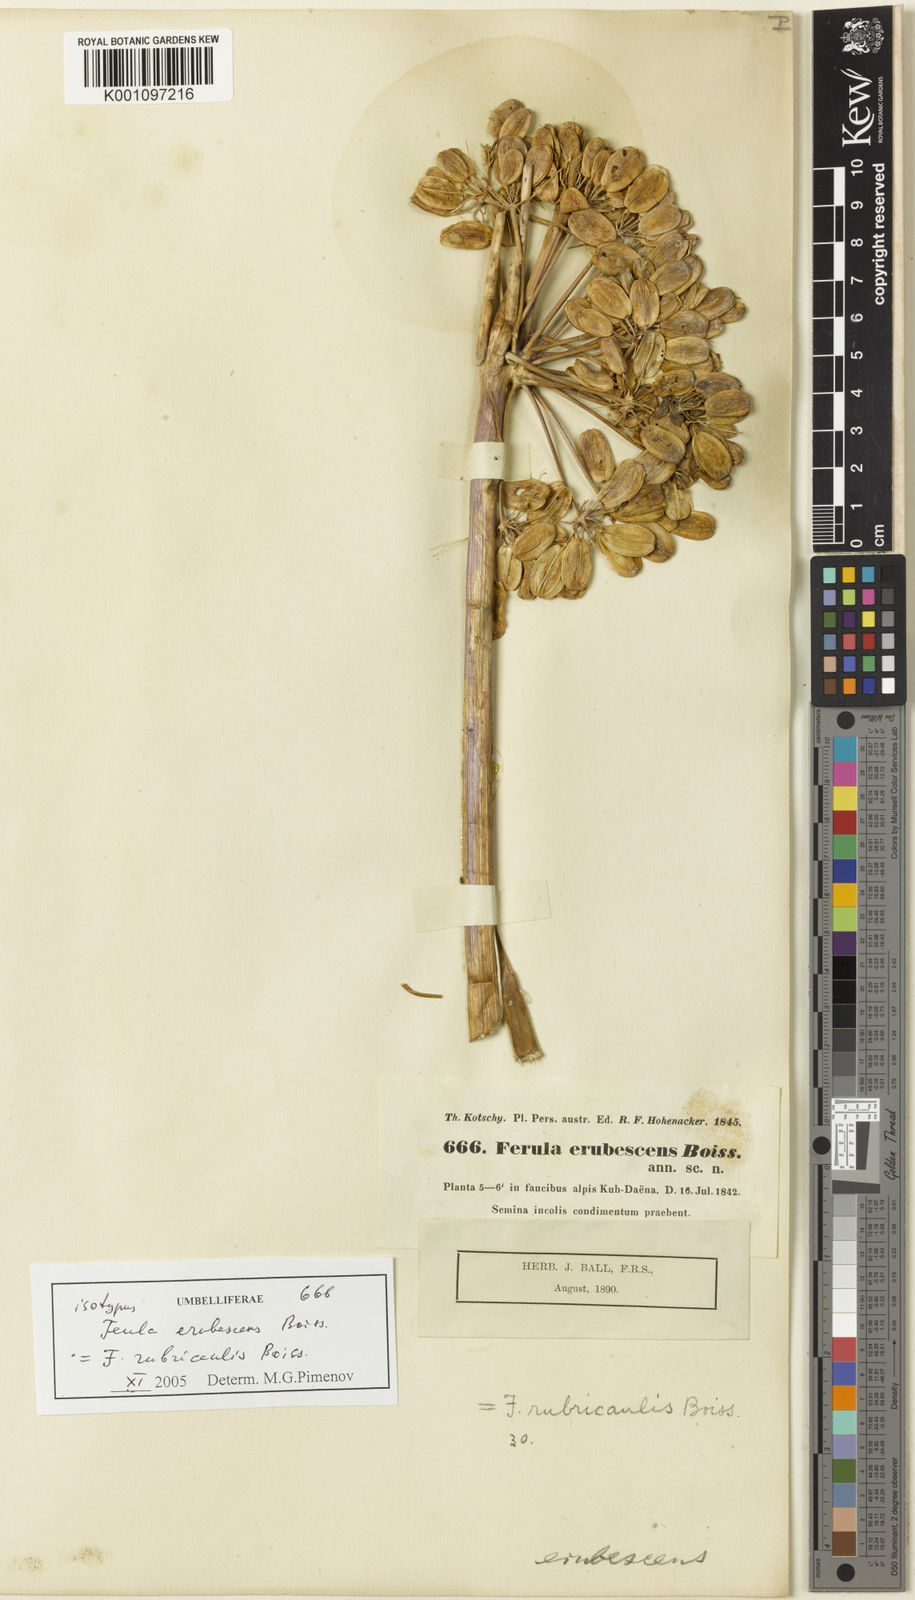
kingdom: Plantae
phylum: Tracheophyta
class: Magnoliopsida
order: Apiales
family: Apiaceae
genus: Ferula
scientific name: Ferula rubricaulis
